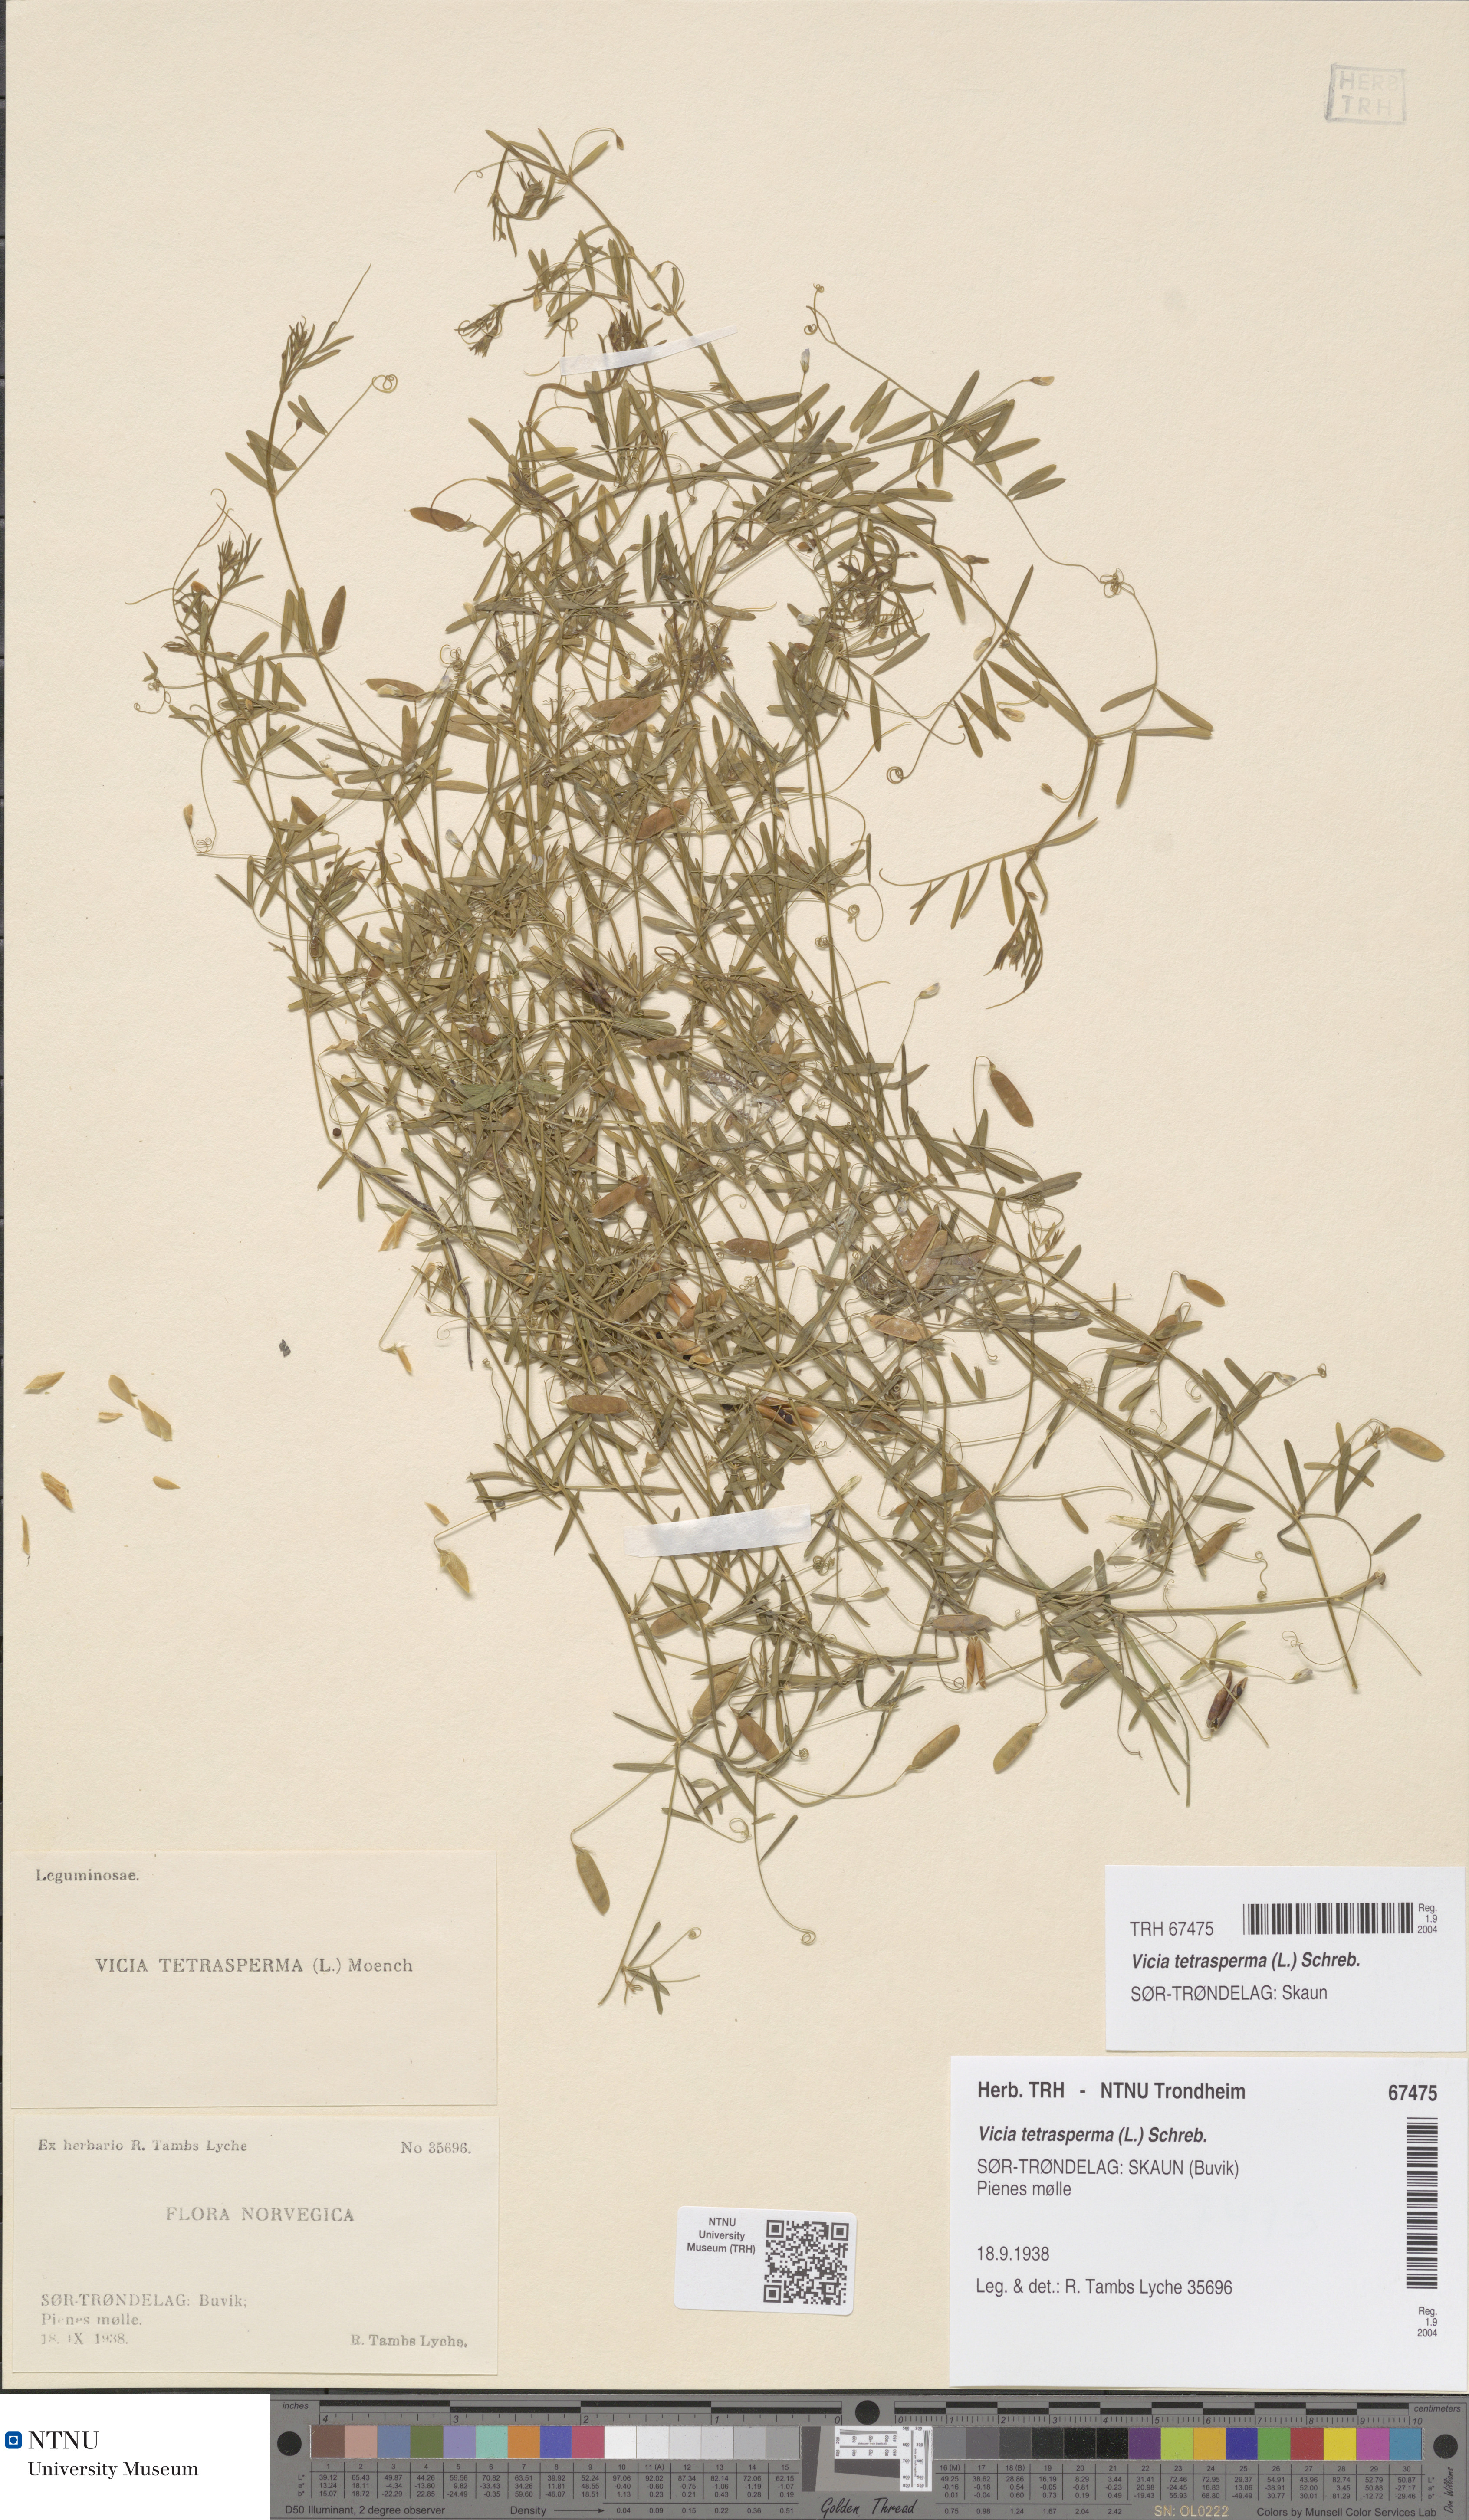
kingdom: Plantae
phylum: Tracheophyta
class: Magnoliopsida
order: Fabales
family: Fabaceae
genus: Vicia
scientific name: Vicia tetrasperma
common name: Smooth tare
